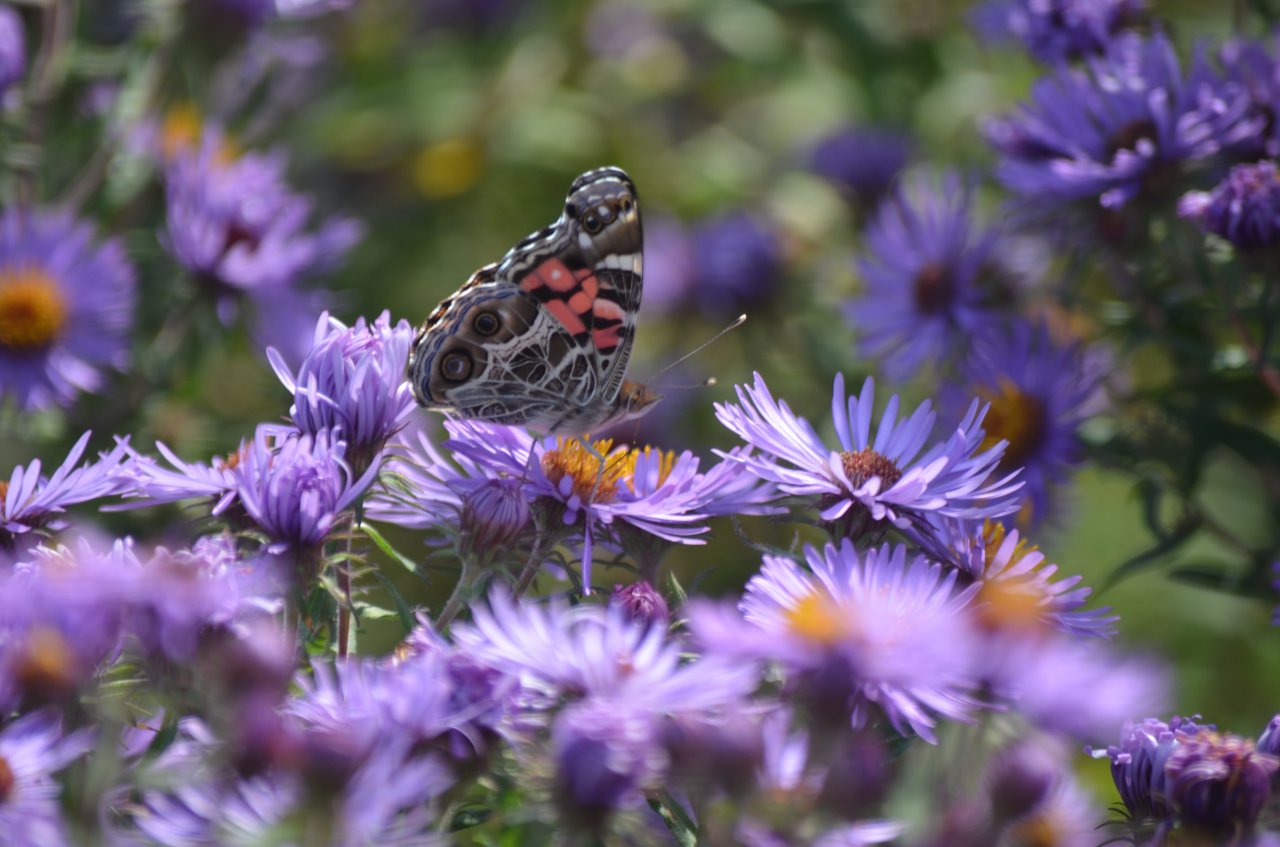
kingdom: Animalia
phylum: Arthropoda
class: Insecta
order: Lepidoptera
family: Nymphalidae
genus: Vanessa
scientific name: Vanessa virginiensis
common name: American Lady
